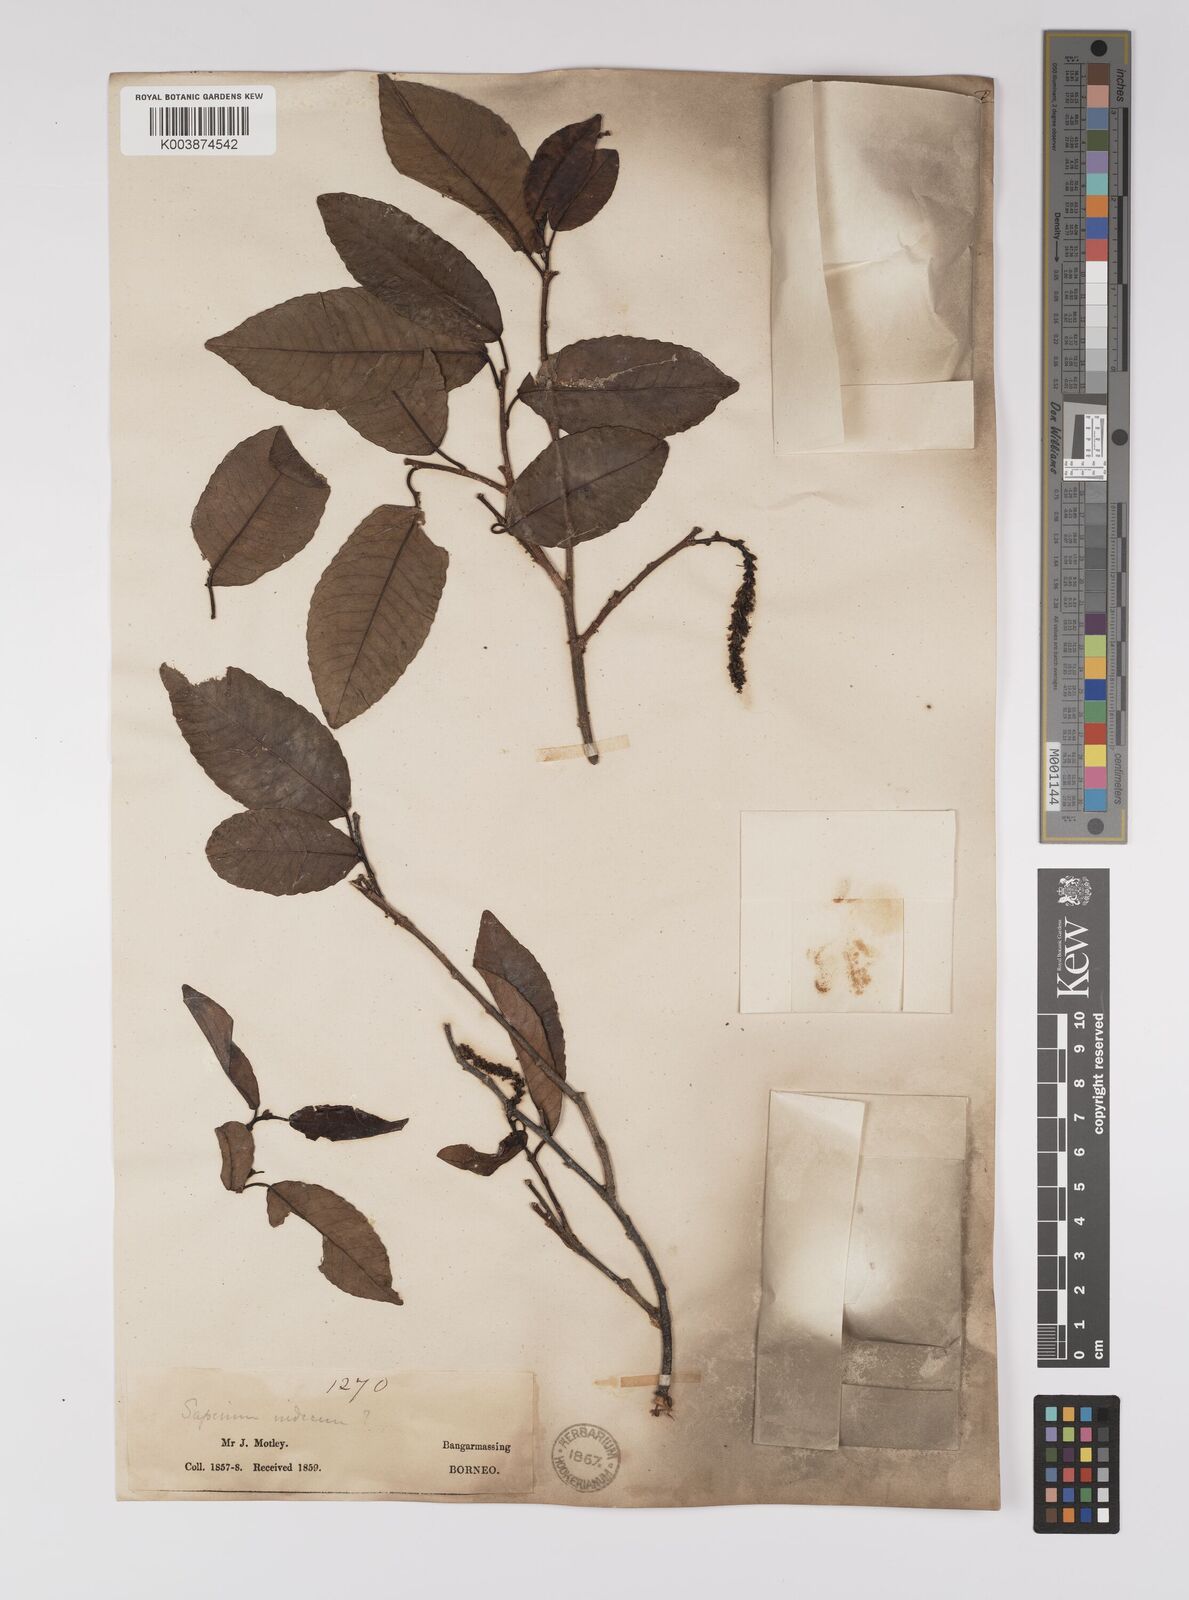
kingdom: Plantae
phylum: Tracheophyta
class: Magnoliopsida
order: Malpighiales
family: Euphorbiaceae
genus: Shirakiopsis
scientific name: Shirakiopsis indica
